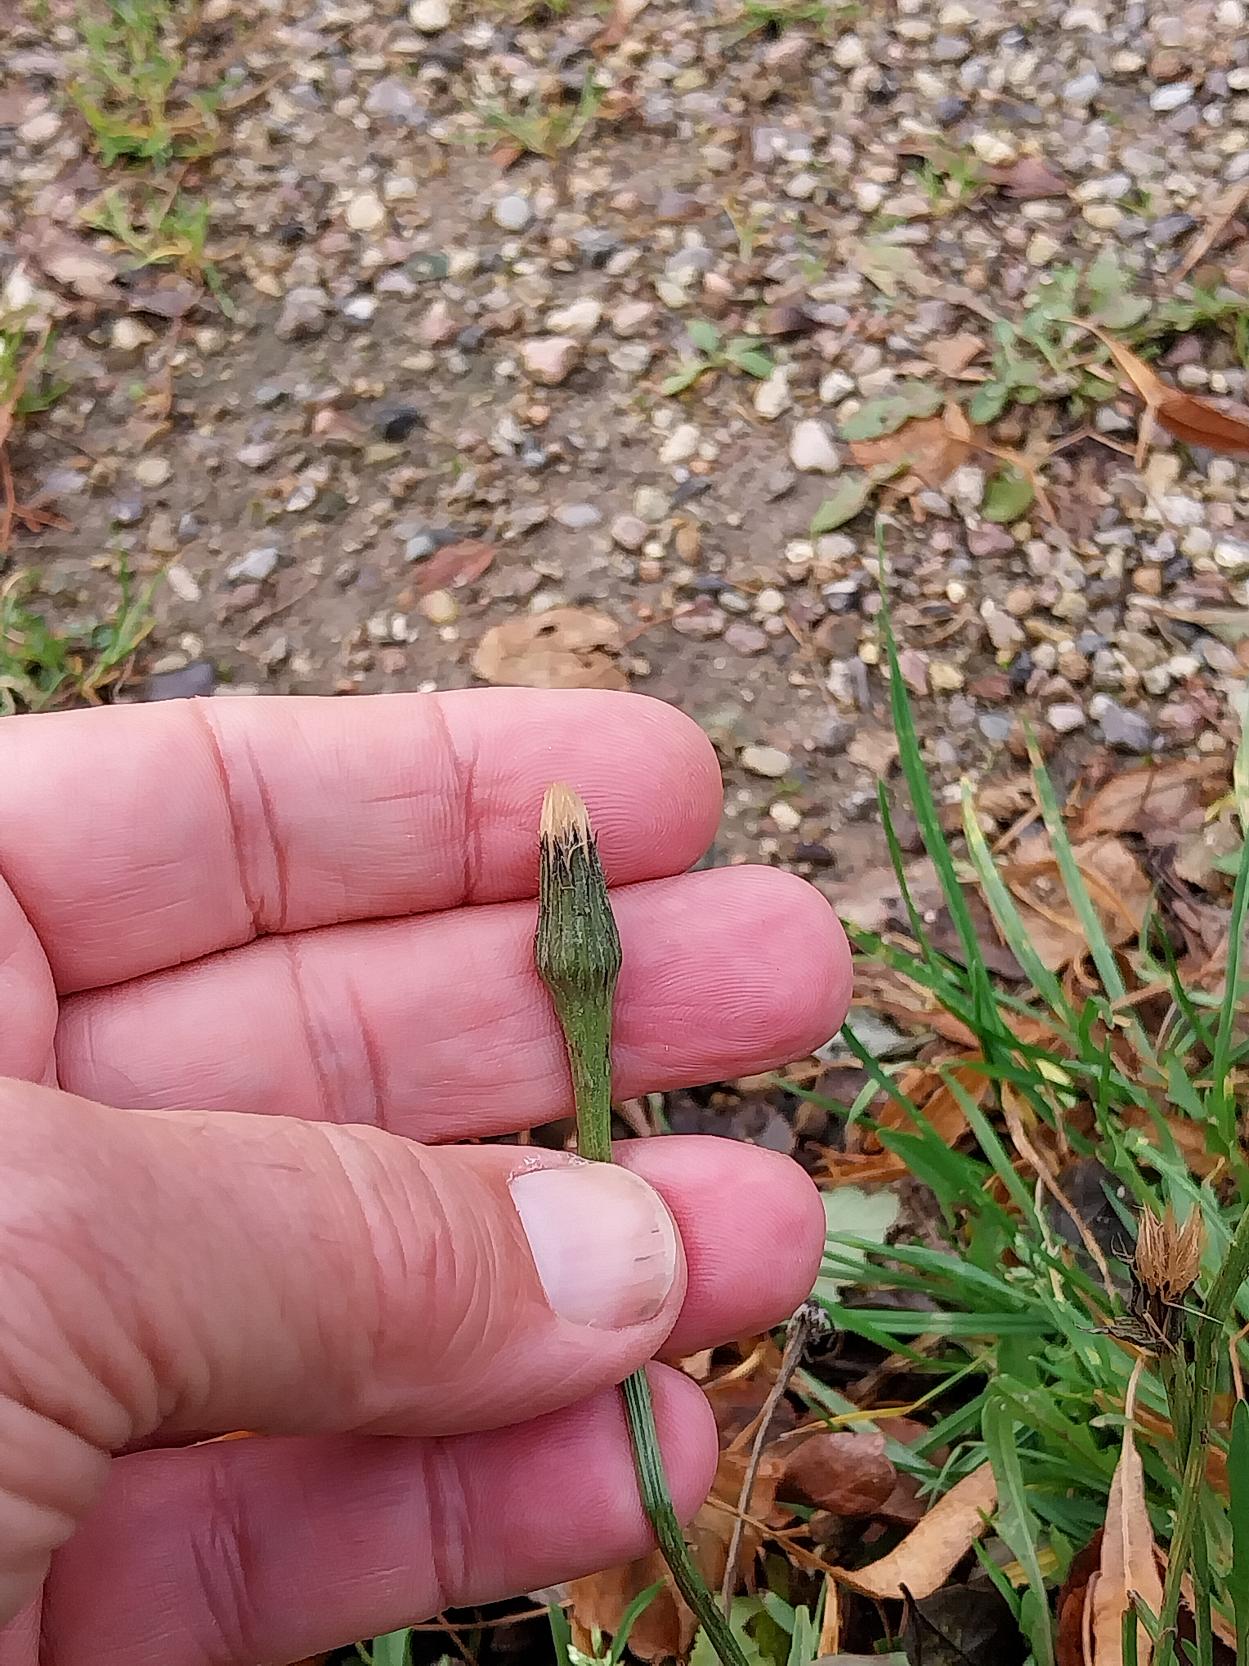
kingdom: Plantae
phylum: Tracheophyta
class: Magnoliopsida
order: Asterales
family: Asteraceae
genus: Scorzoneroides
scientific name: Scorzoneroides autumnalis
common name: Høst-borst
